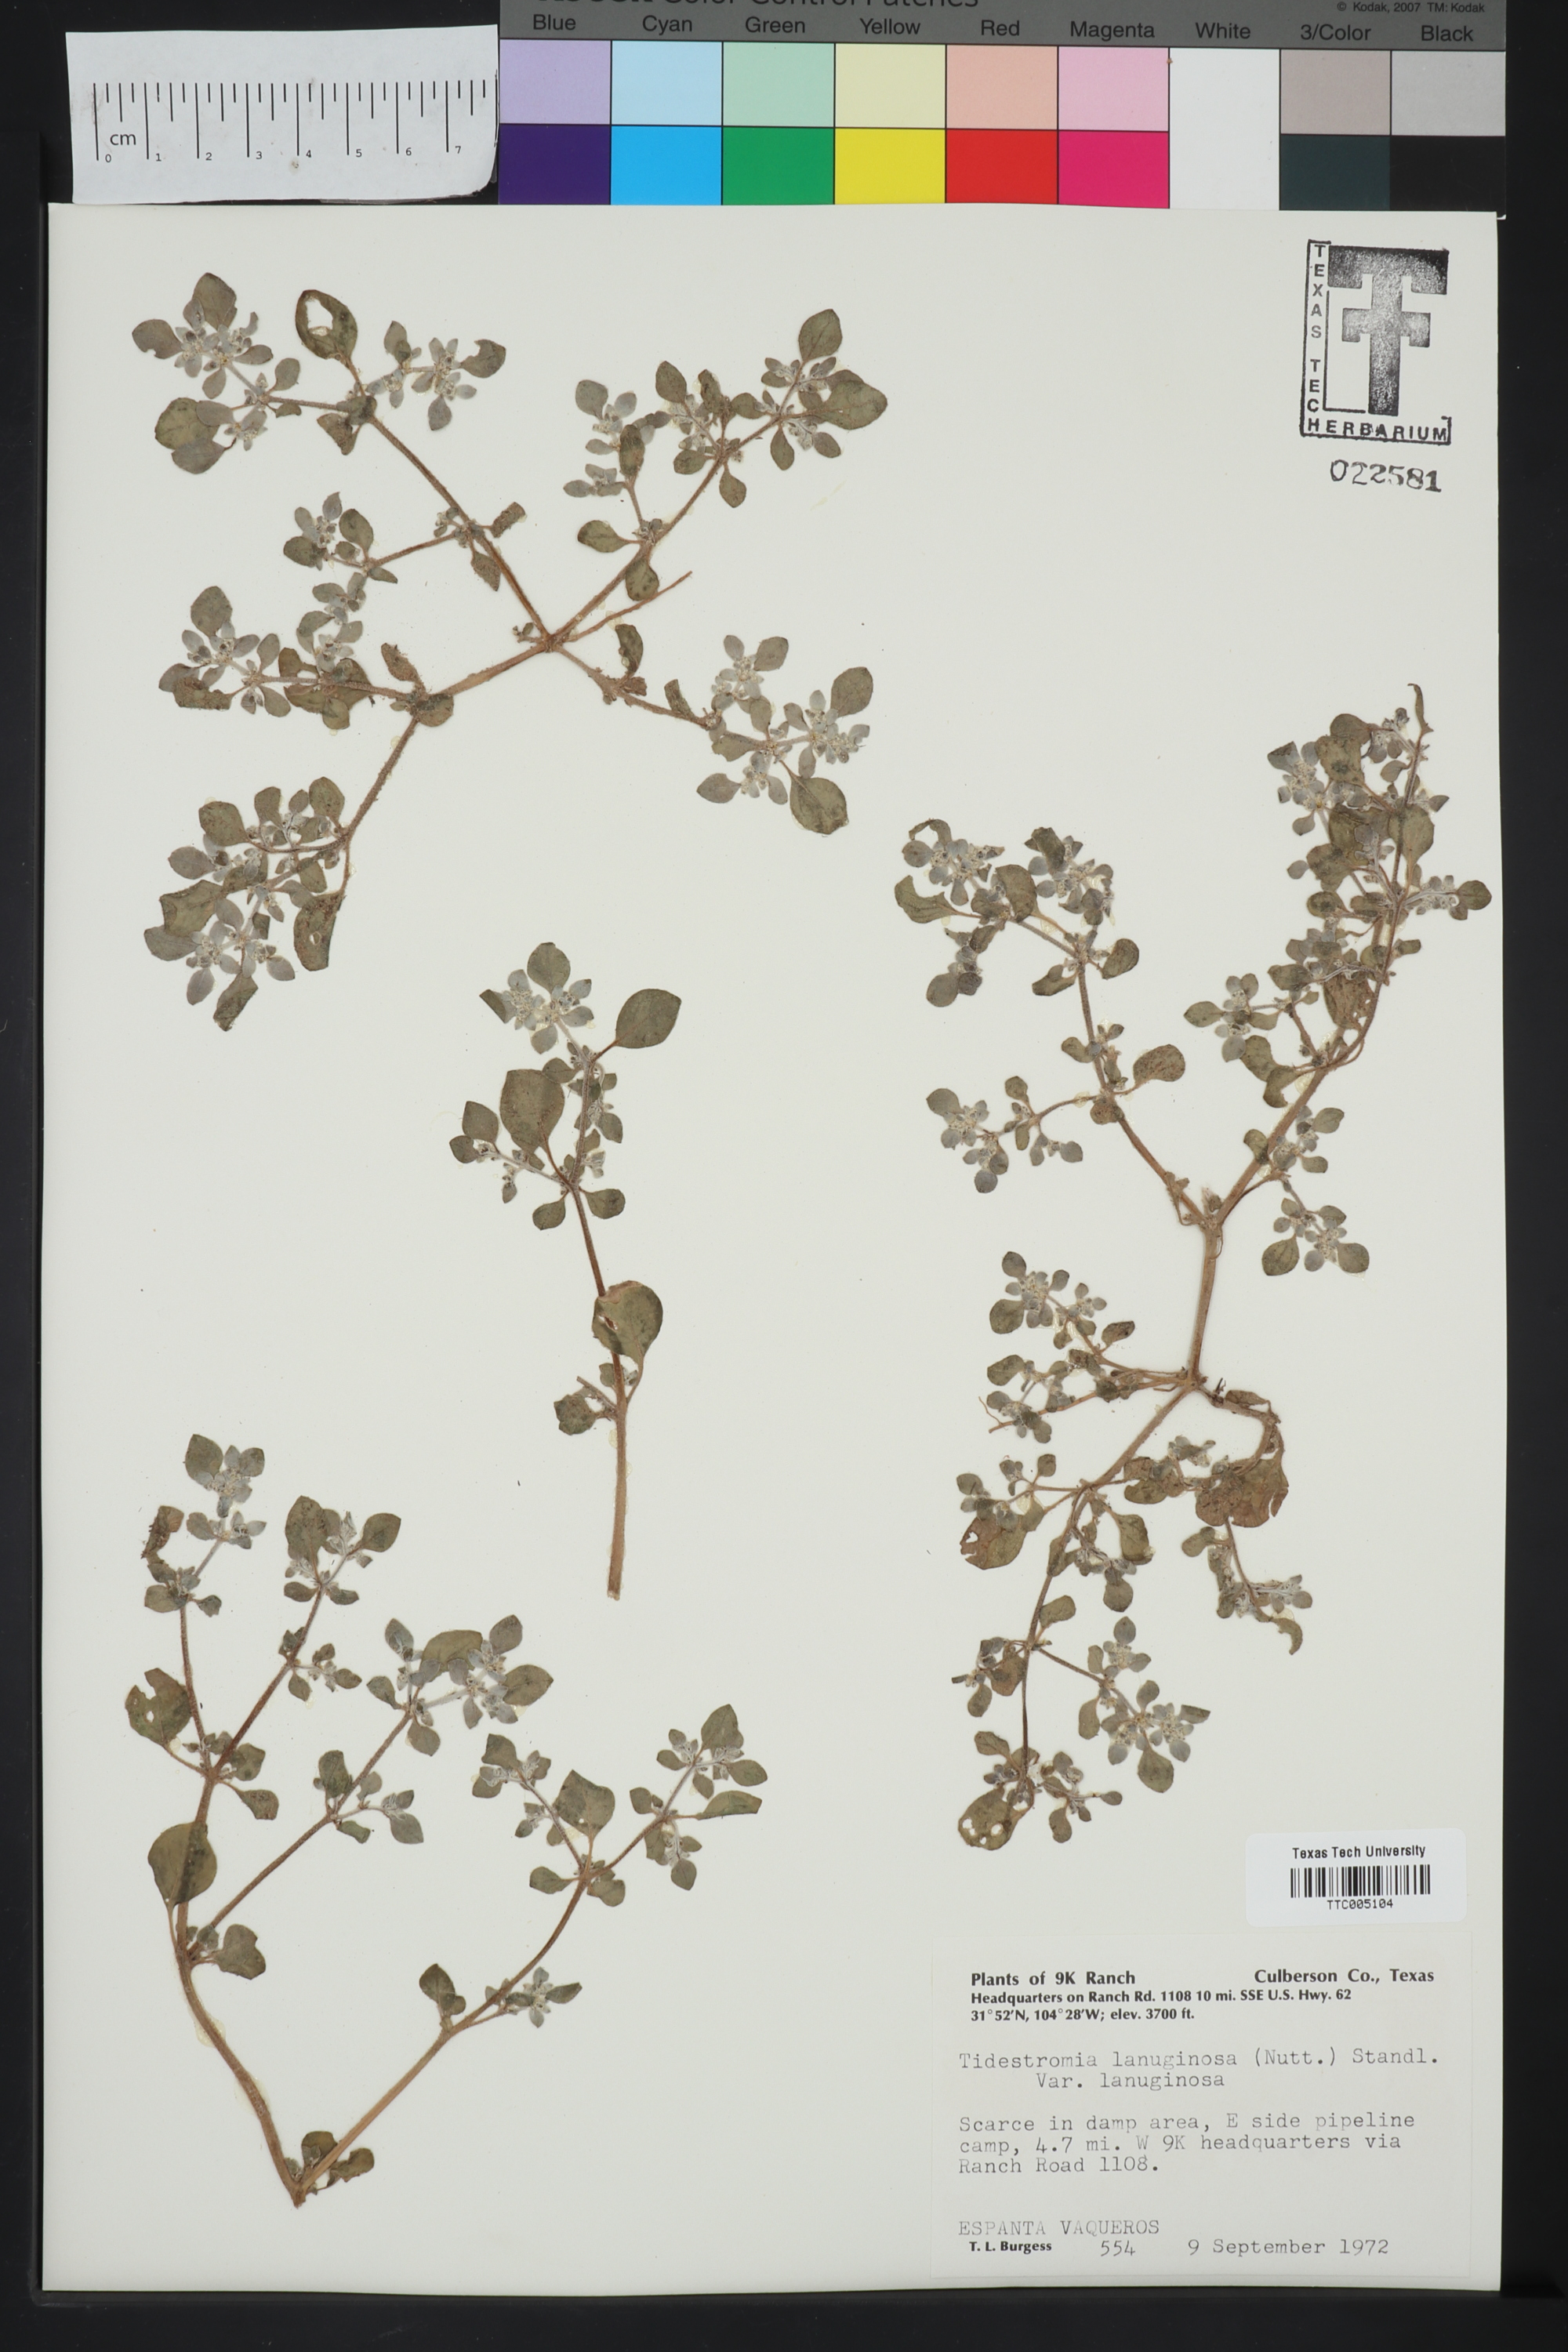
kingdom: Plantae
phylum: Tracheophyta
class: Magnoliopsida
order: Caryophyllales
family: Amaranthaceae
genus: Tidestromia
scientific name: Tidestromia lanuginosa
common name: Woolly tidestromia
